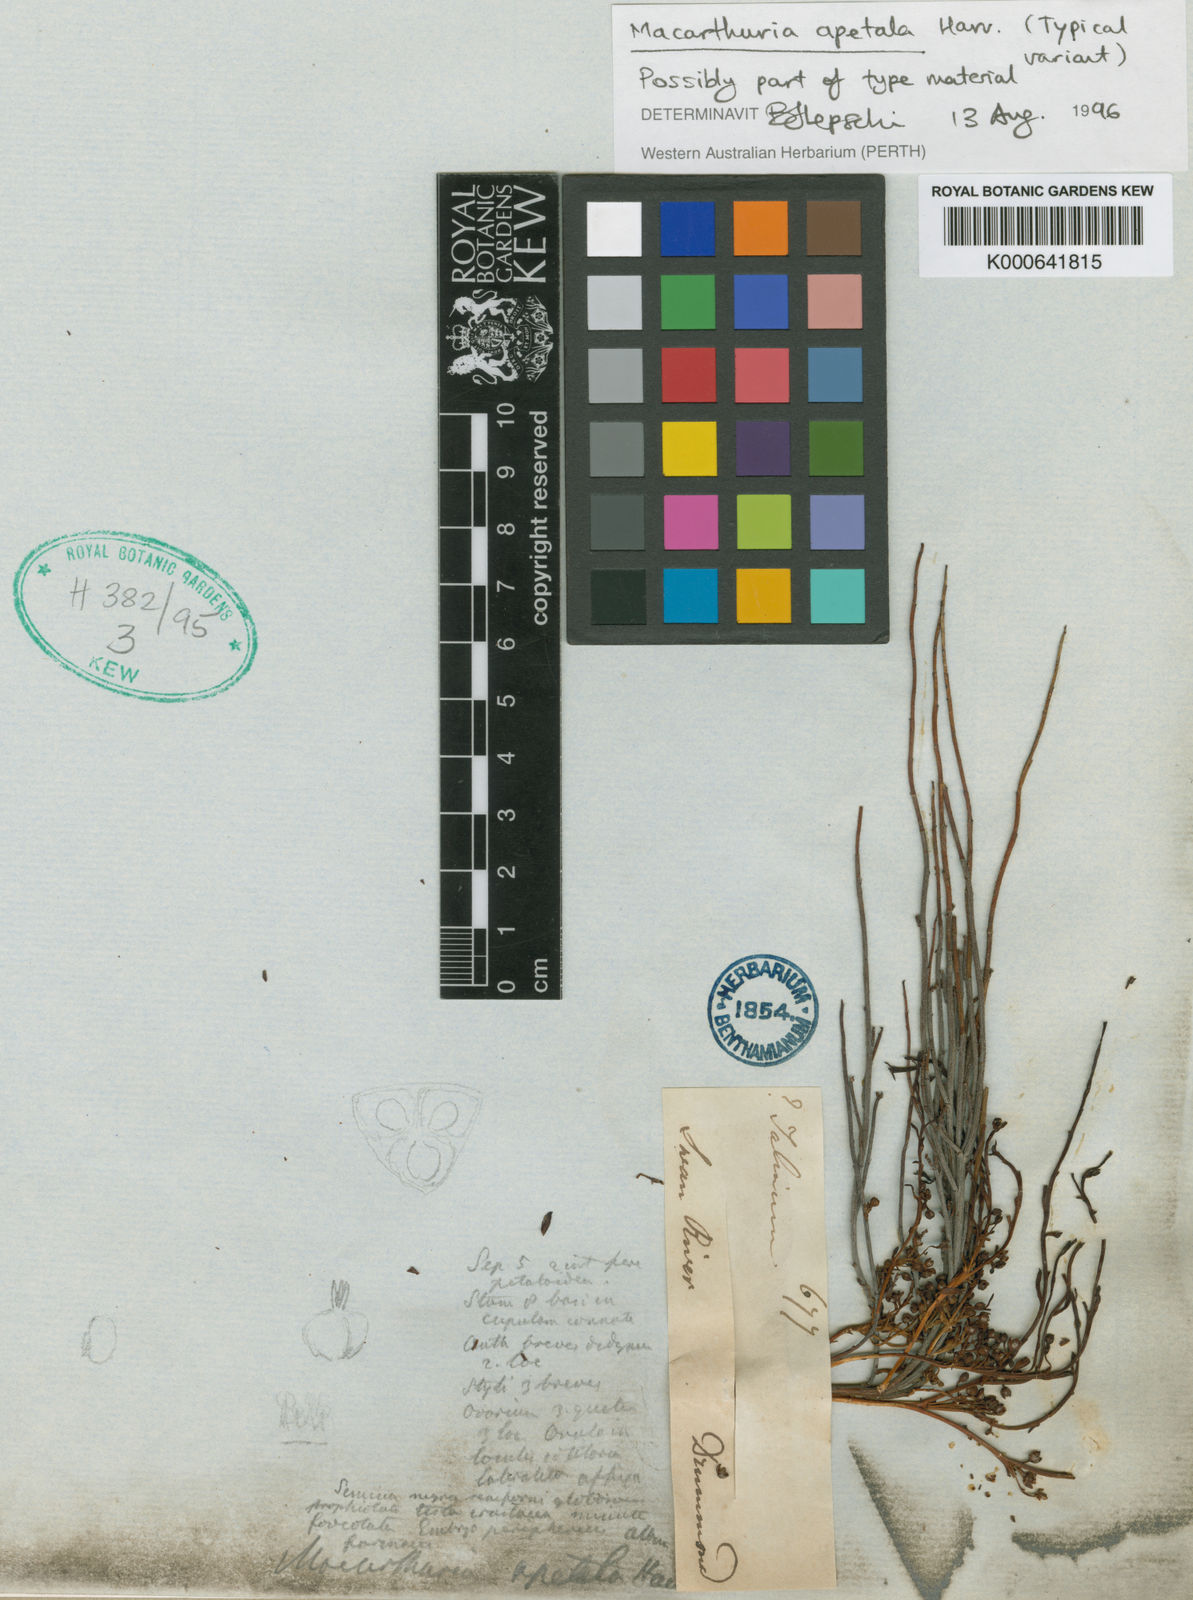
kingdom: Plantae
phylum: Tracheophyta
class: Magnoliopsida
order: Caryophyllales
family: Macarthuriaceae
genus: Macarthuria
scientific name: Macarthuria apetala
